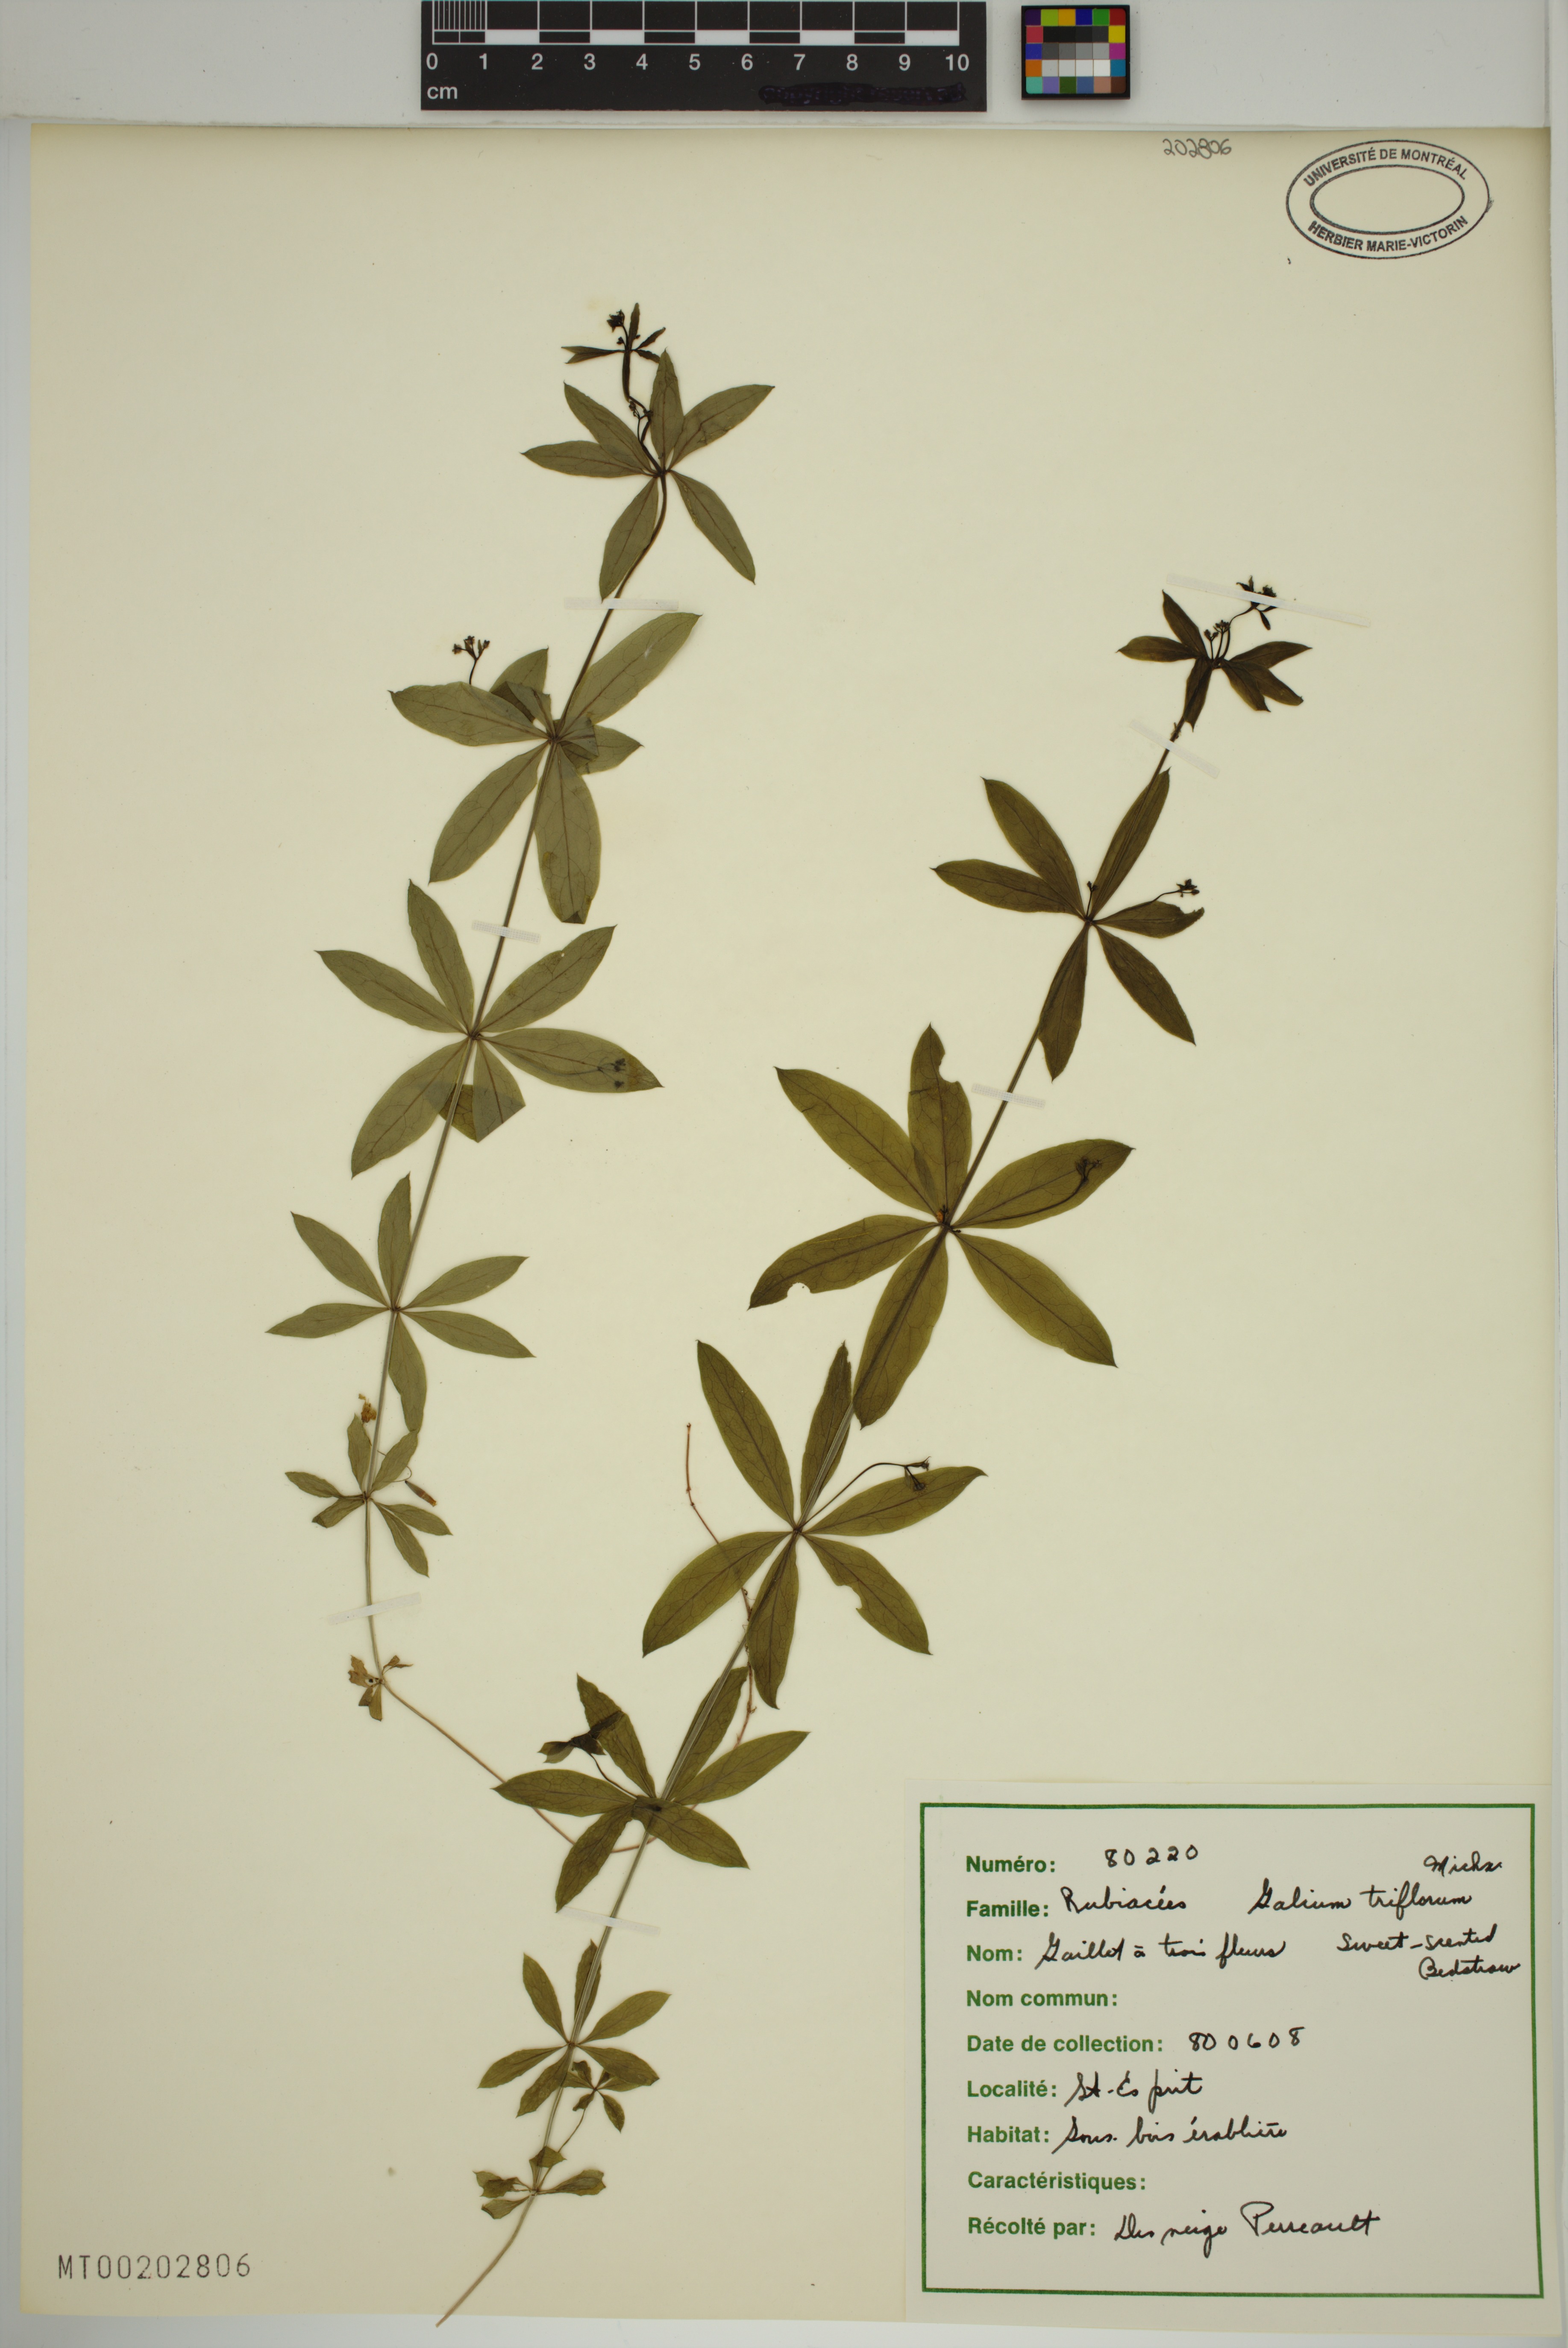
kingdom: Plantae
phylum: Tracheophyta
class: Magnoliopsida
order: Gentianales
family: Rubiaceae
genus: Galium
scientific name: Galium triflorum
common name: Fragrant bedstraw
